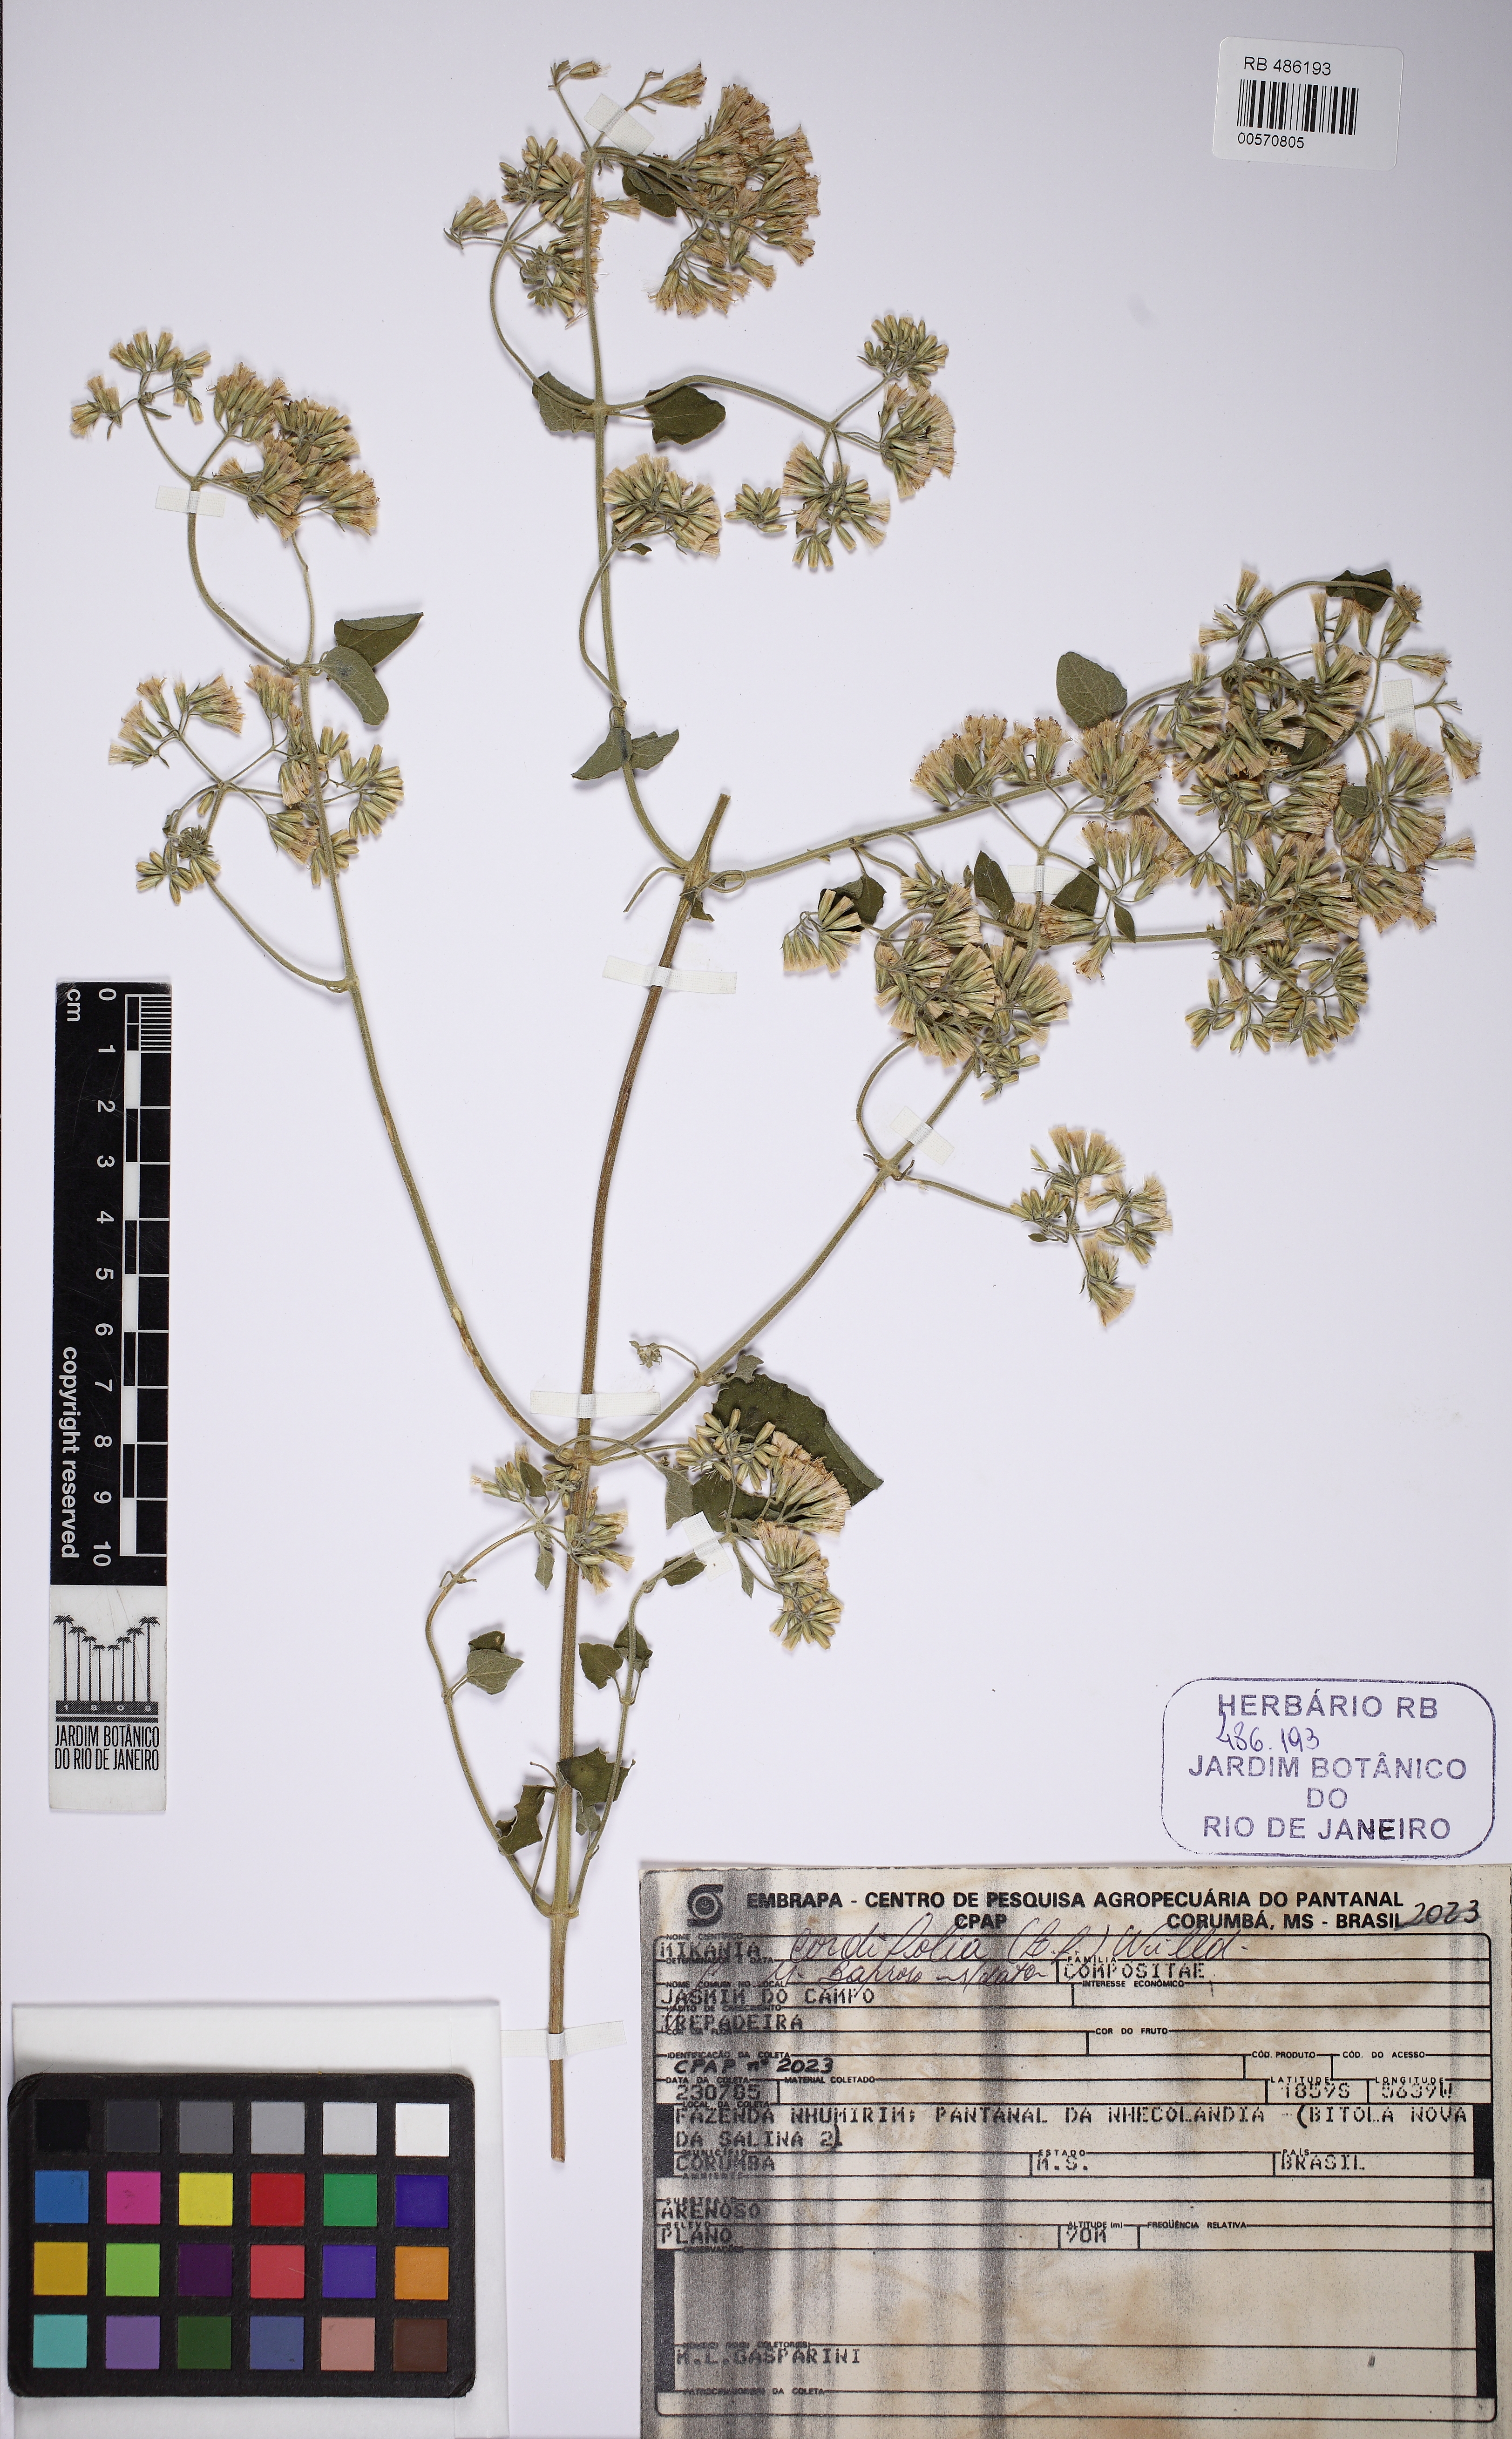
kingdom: Plantae
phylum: Tracheophyta
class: Magnoliopsida
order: Asterales
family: Asteraceae
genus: Mikania
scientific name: Mikania cordifolia
